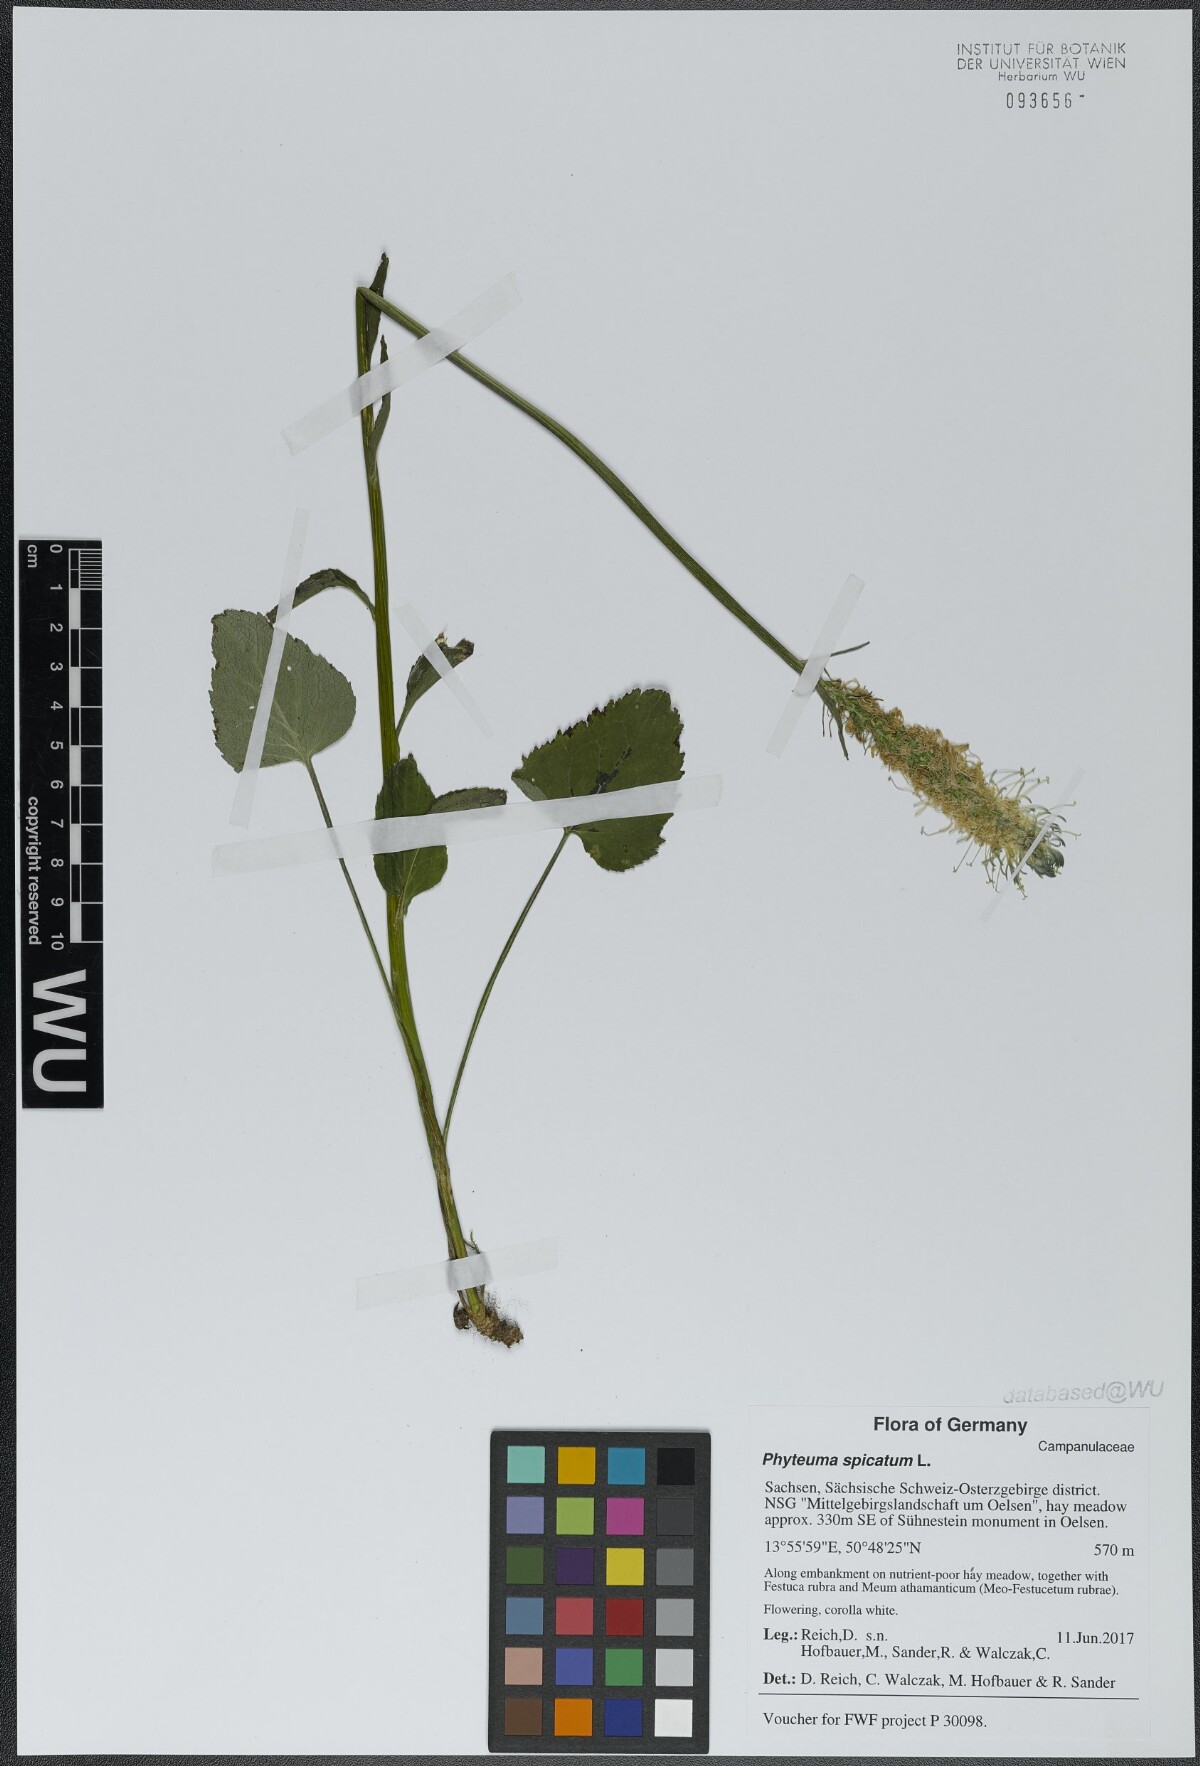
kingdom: Plantae
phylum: Tracheophyta
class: Magnoliopsida
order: Asterales
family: Campanulaceae
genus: Phyteuma
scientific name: Phyteuma spicatum
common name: Spiked rampion
